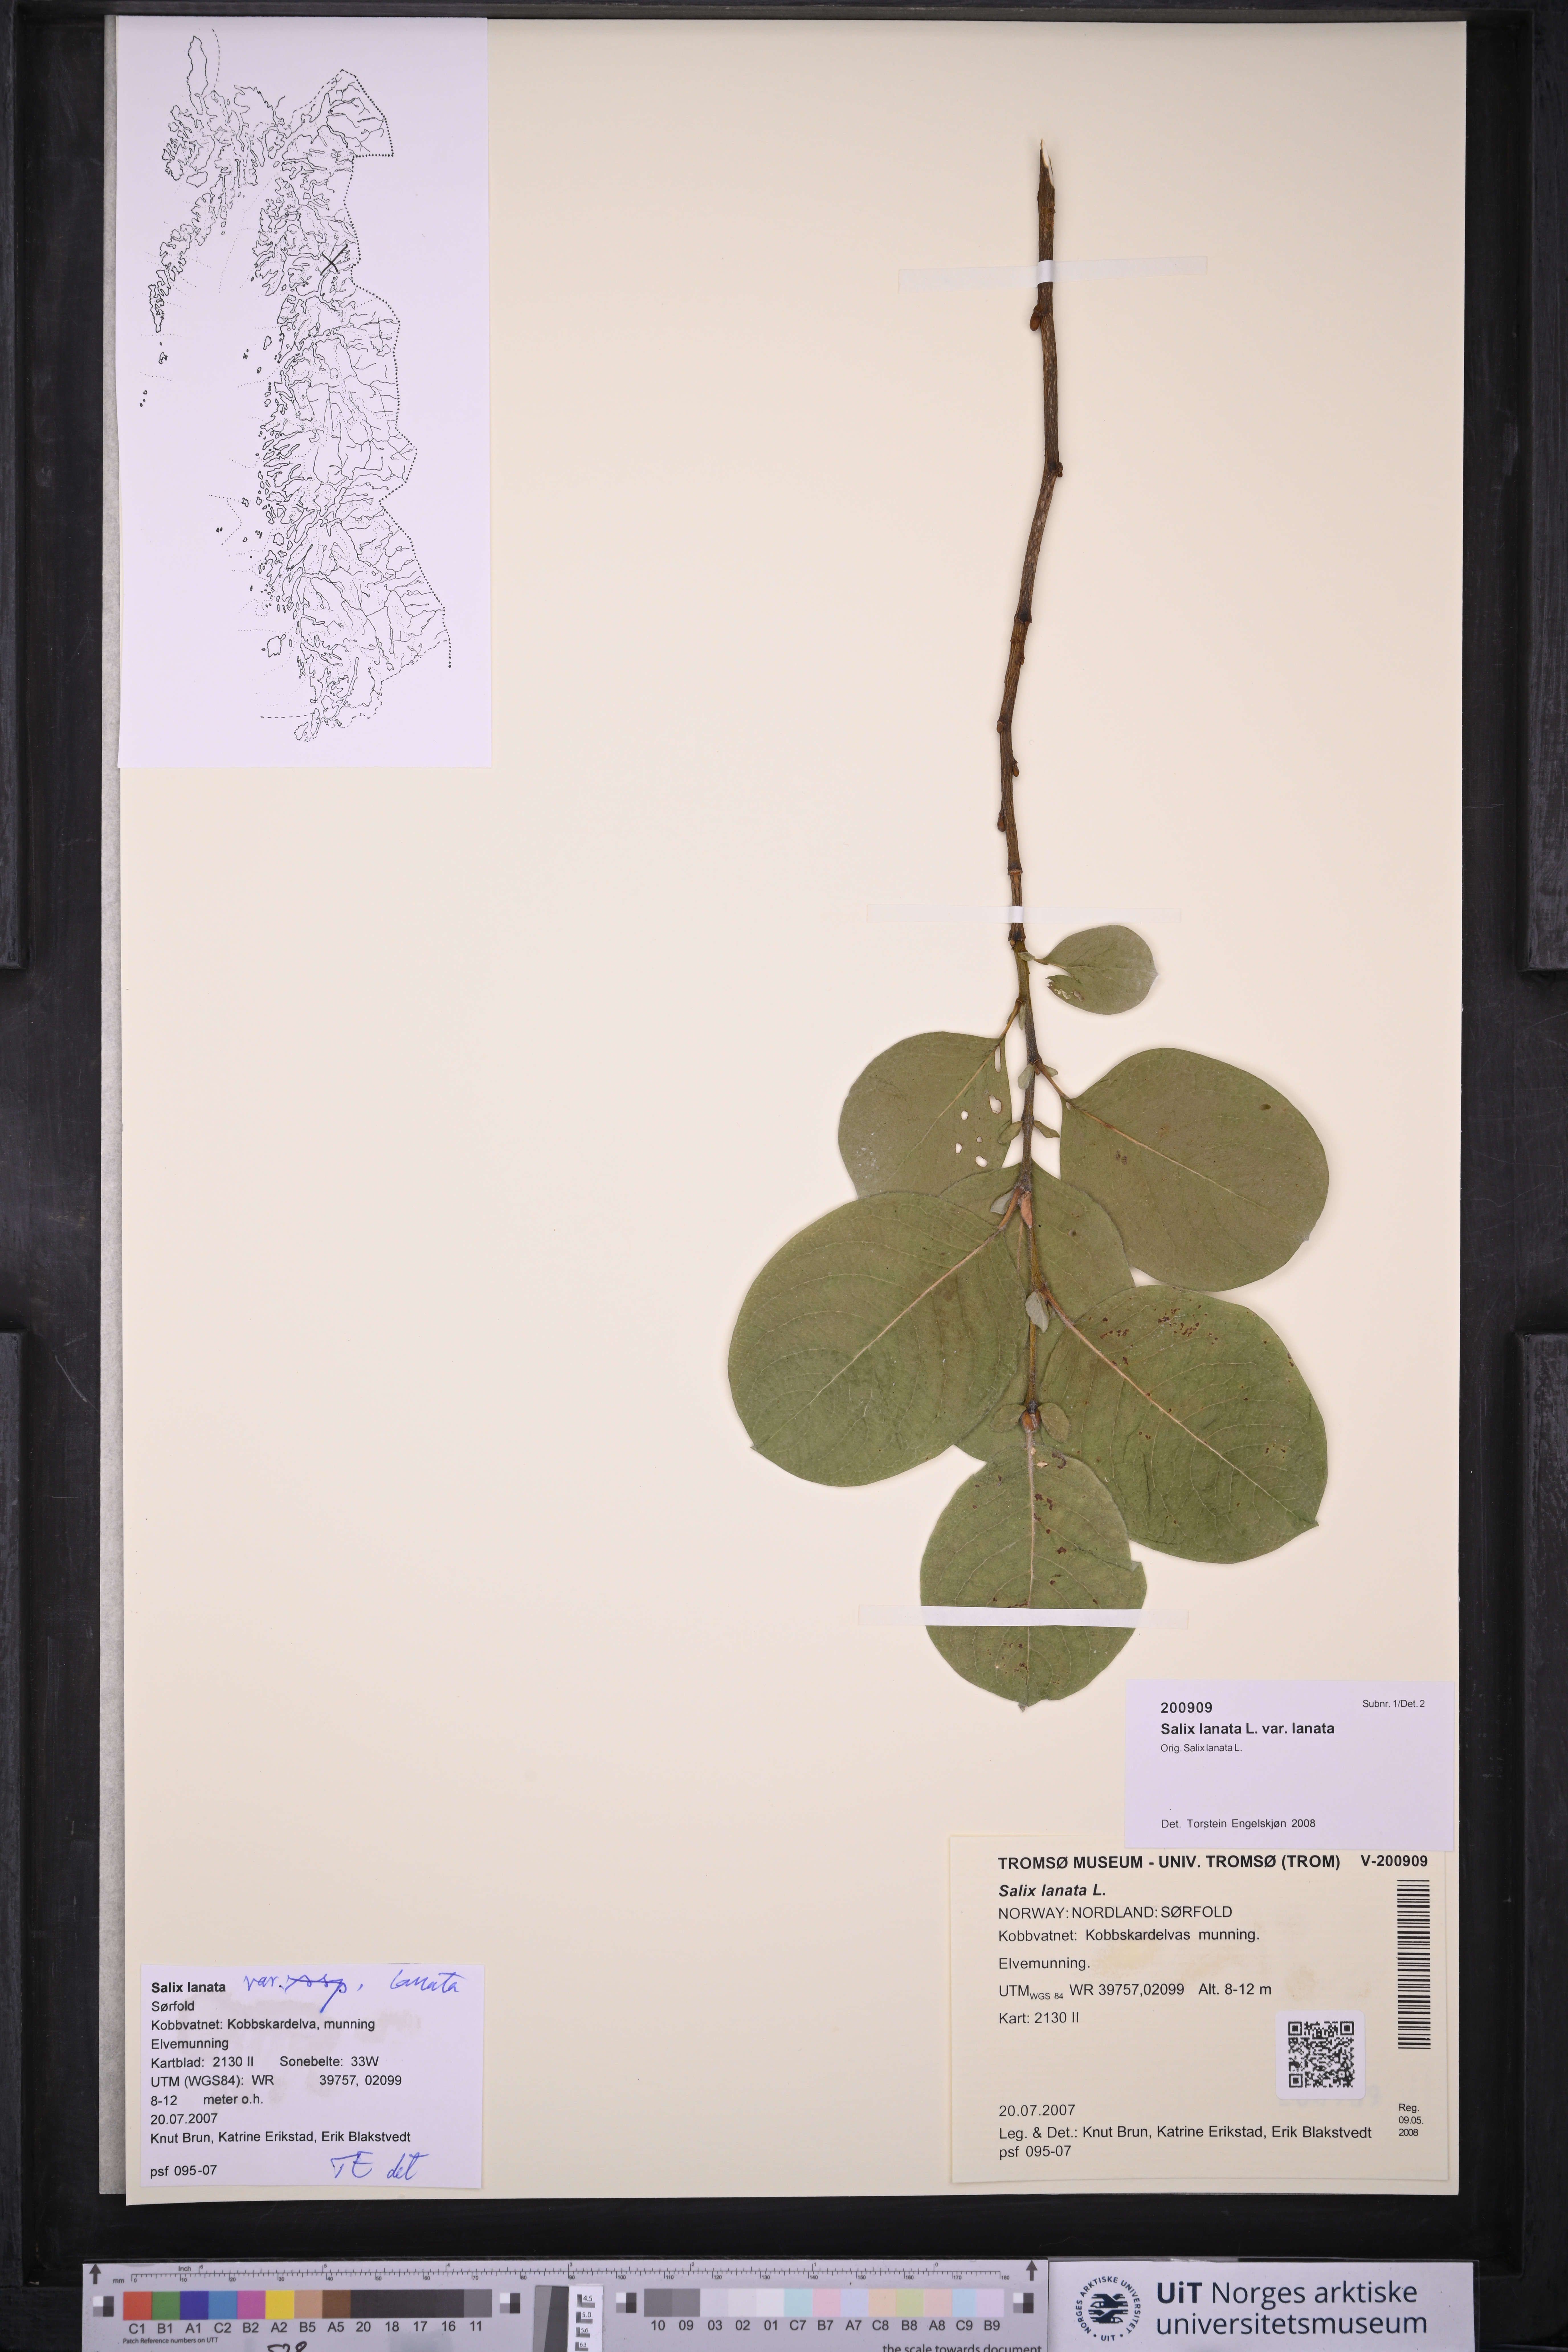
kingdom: Plantae
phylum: Tracheophyta
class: Magnoliopsida
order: Malpighiales
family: Salicaceae
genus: Salix
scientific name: Salix lanata
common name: Woolly willow
